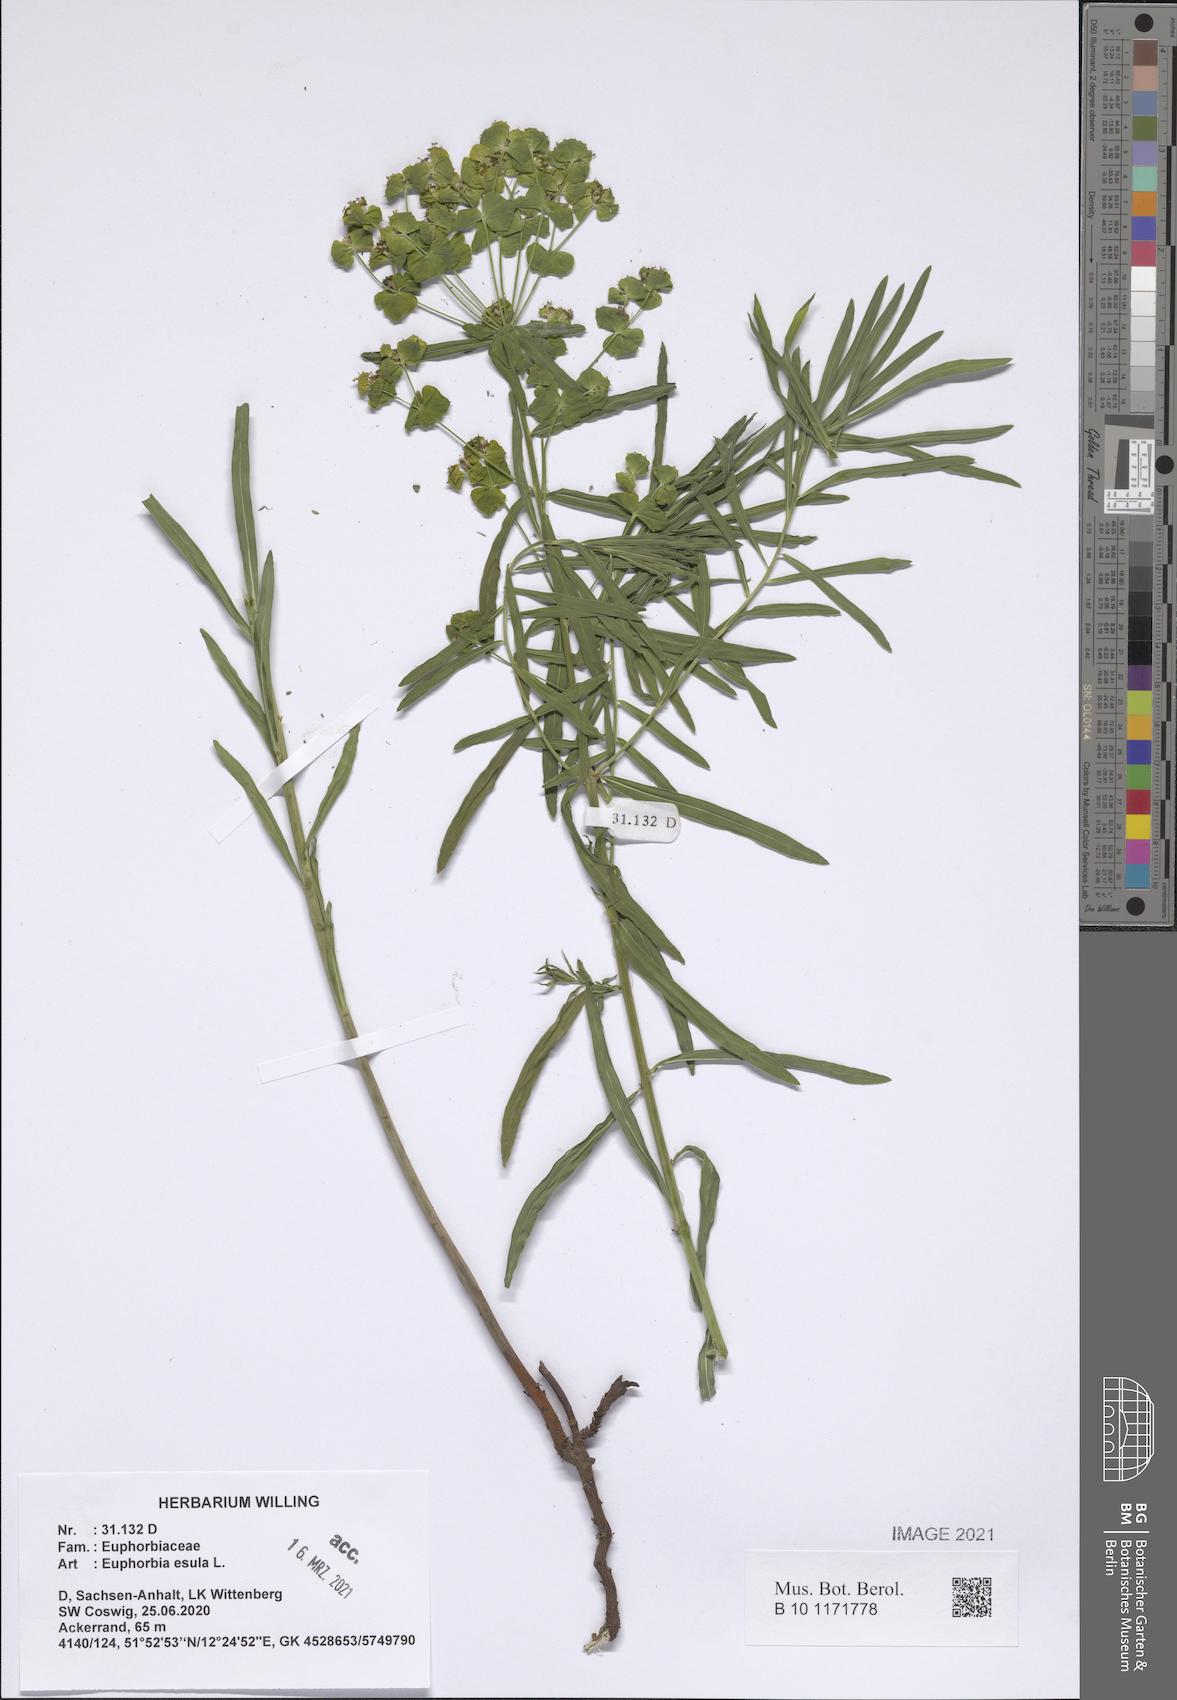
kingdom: Plantae
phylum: Tracheophyta
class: Magnoliopsida
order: Malpighiales
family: Euphorbiaceae
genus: Euphorbia
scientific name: Euphorbia esula
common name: Leafy spurge
